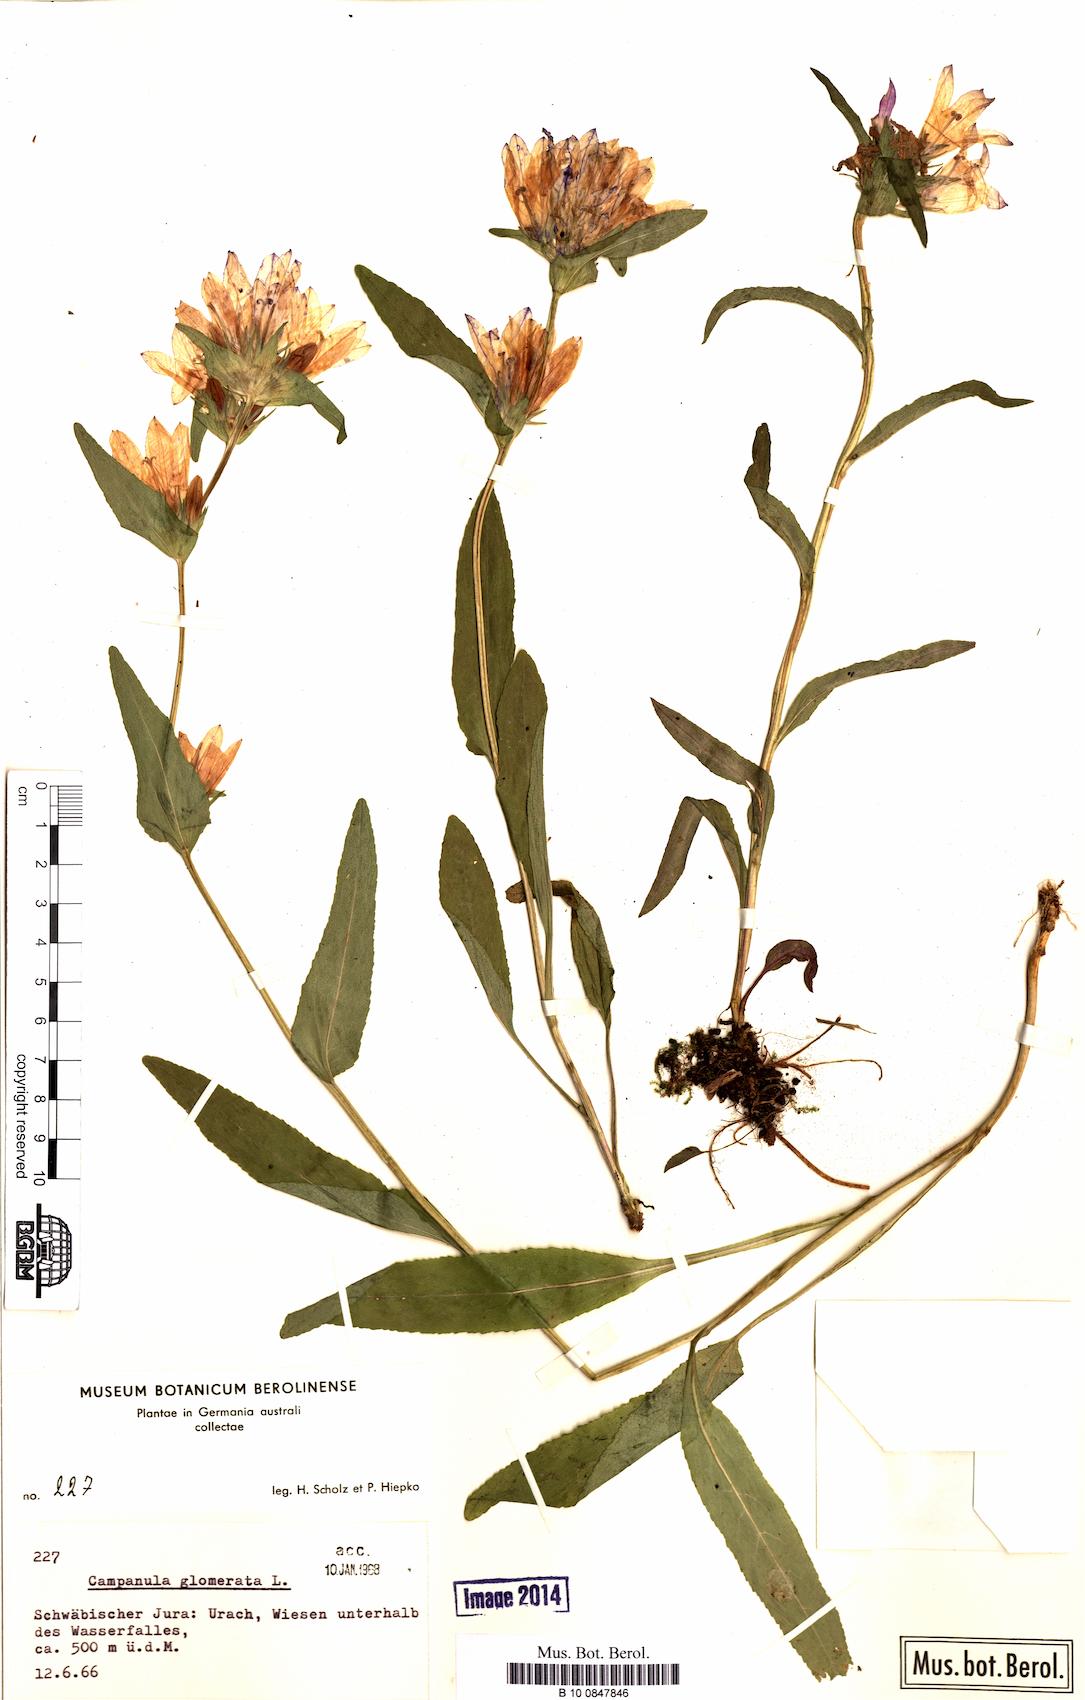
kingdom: Plantae
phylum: Tracheophyta
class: Magnoliopsida
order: Asterales
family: Campanulaceae
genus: Campanula
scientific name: Campanula glomerata
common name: Clustered bellflower
